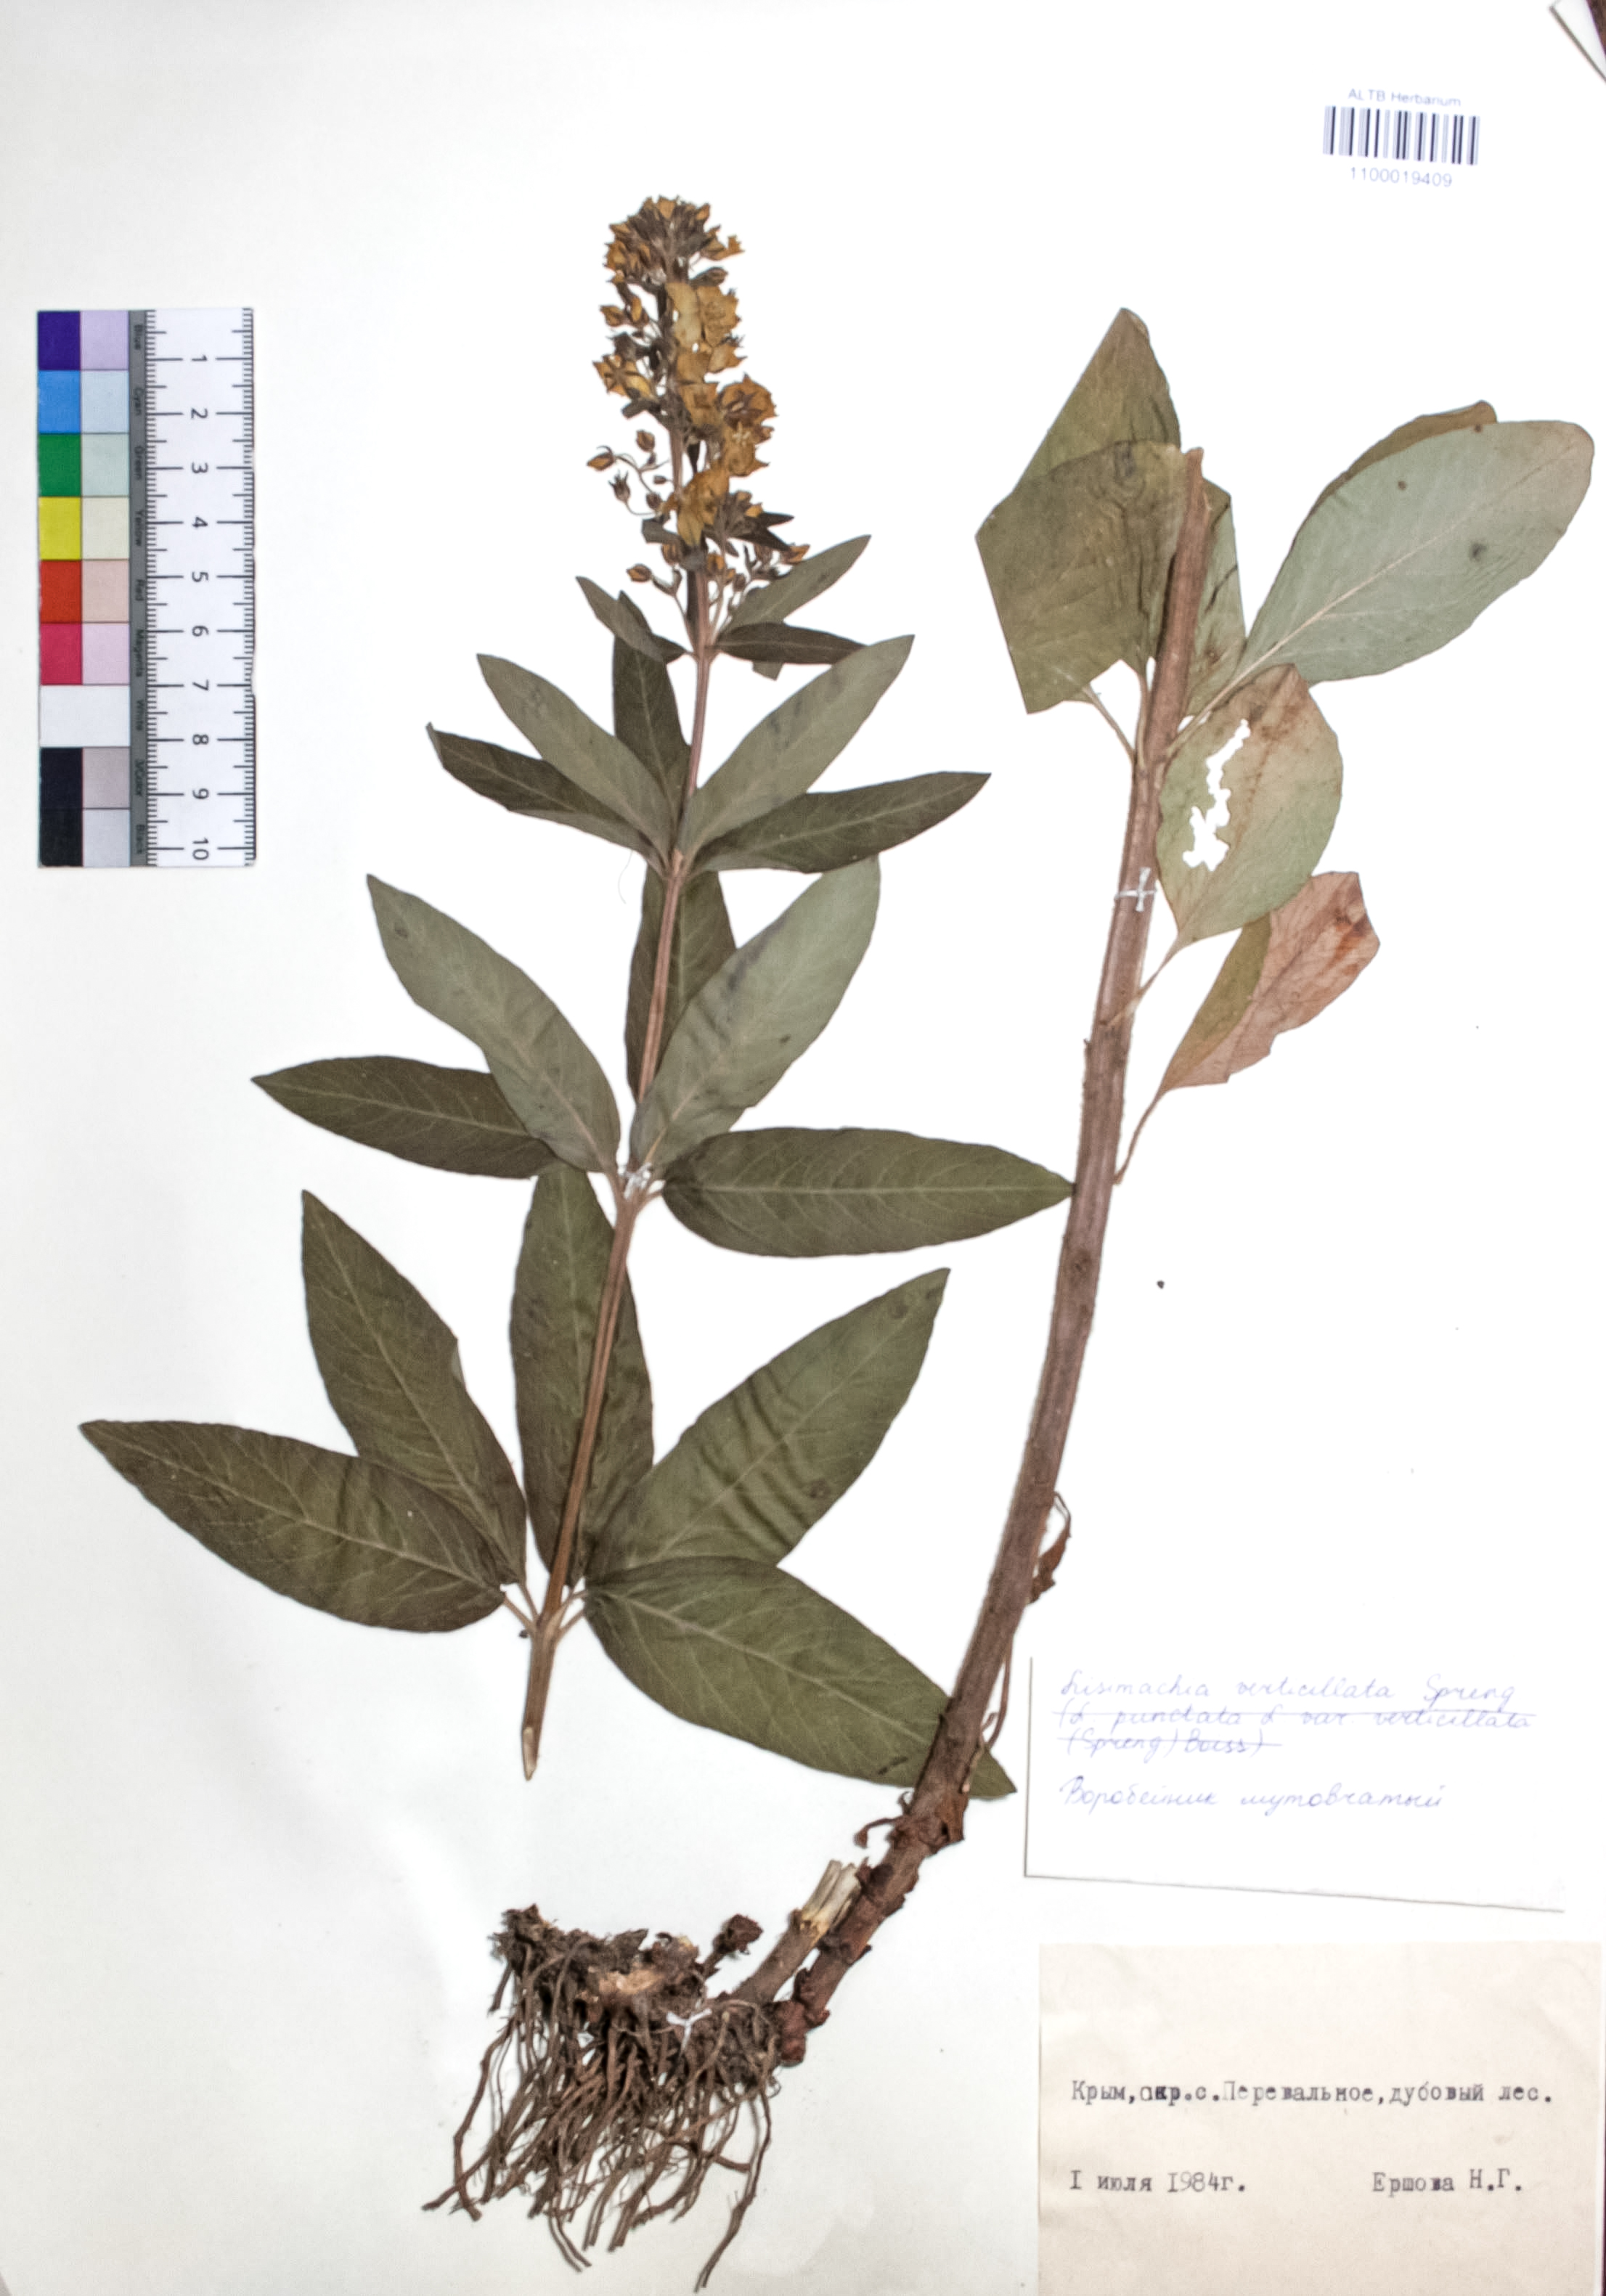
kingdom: Plantae
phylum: Tracheophyta
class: Magnoliopsida
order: Ericales
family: Primulaceae
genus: Lysimachia
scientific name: Lysimachia verticillaris
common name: Yellow loosestrife
